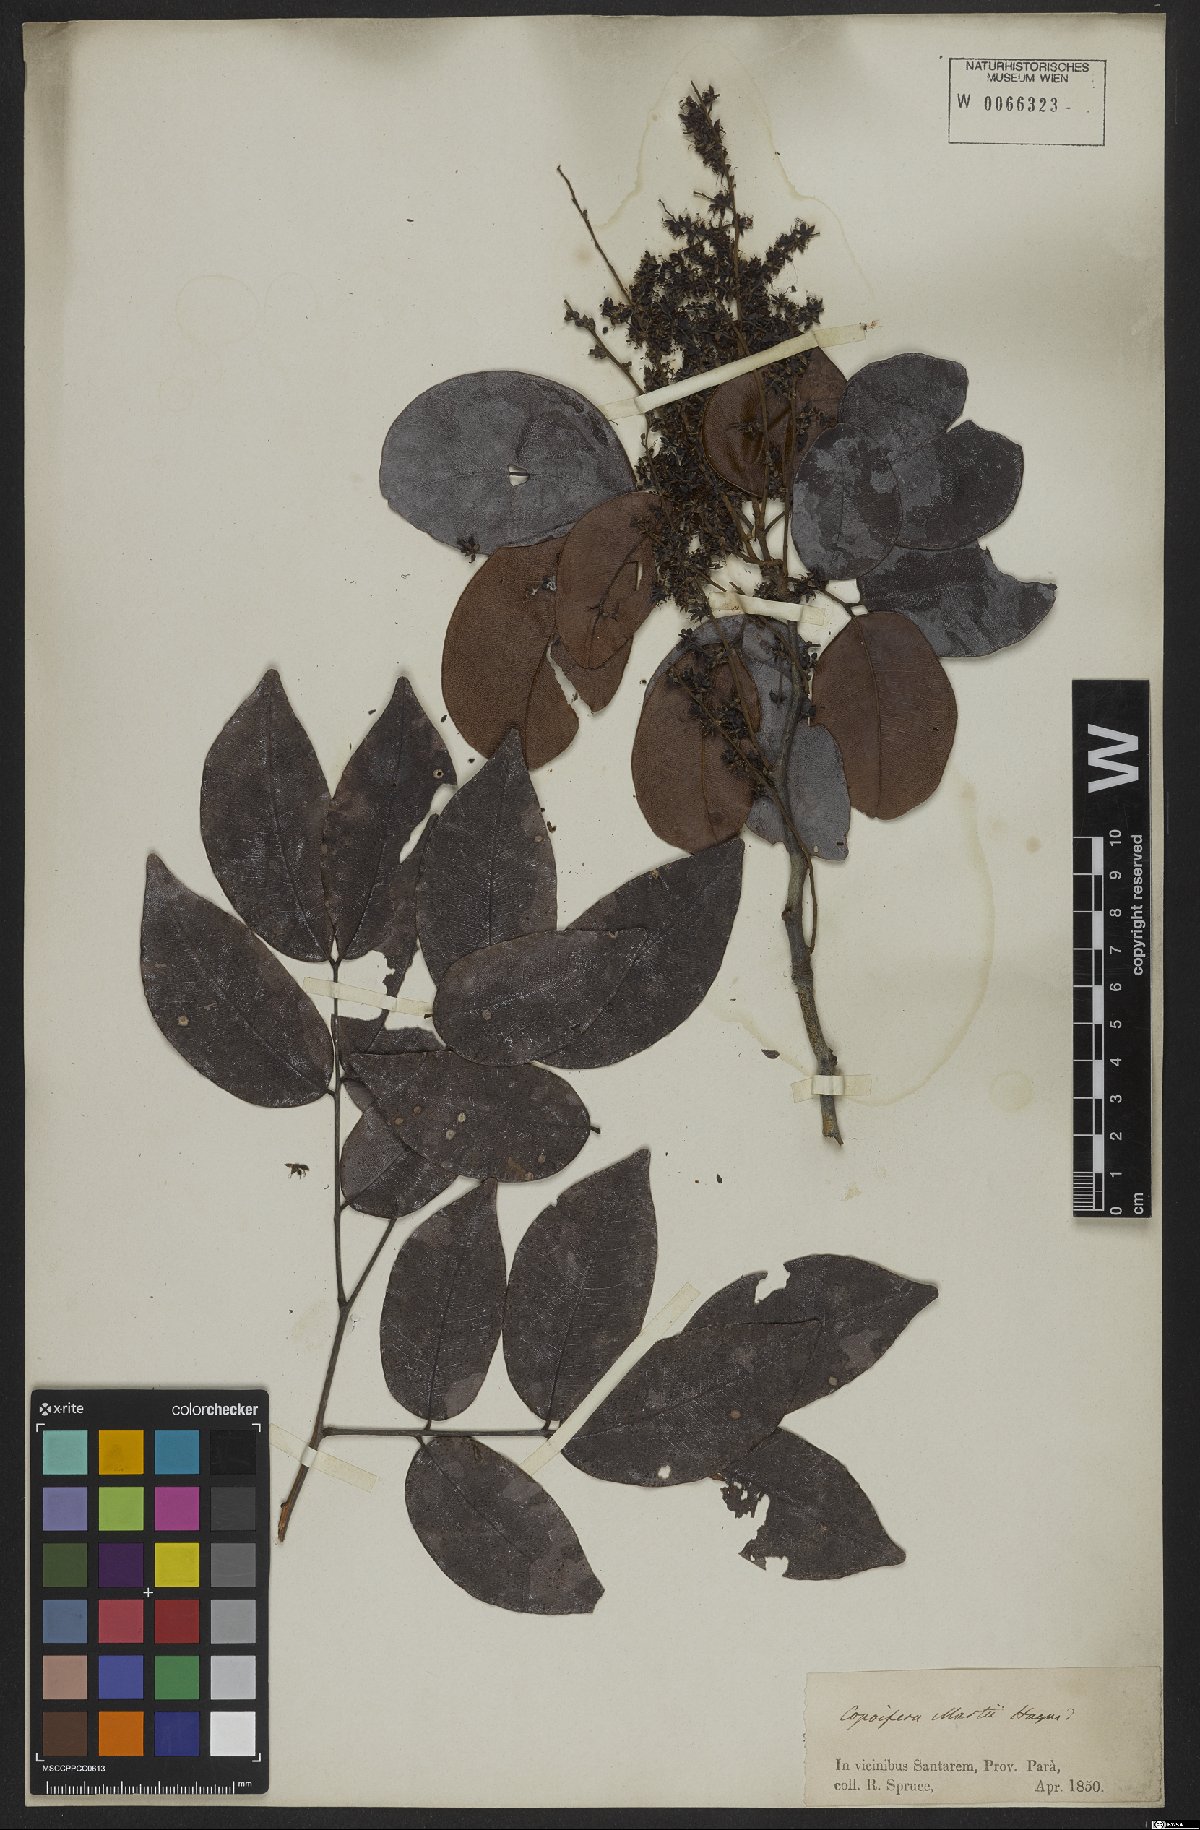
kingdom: Plantae
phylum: Tracheophyta
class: Magnoliopsida
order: Fabales
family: Fabaceae
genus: Copaifera
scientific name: Copaifera martii
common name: Copaiba
